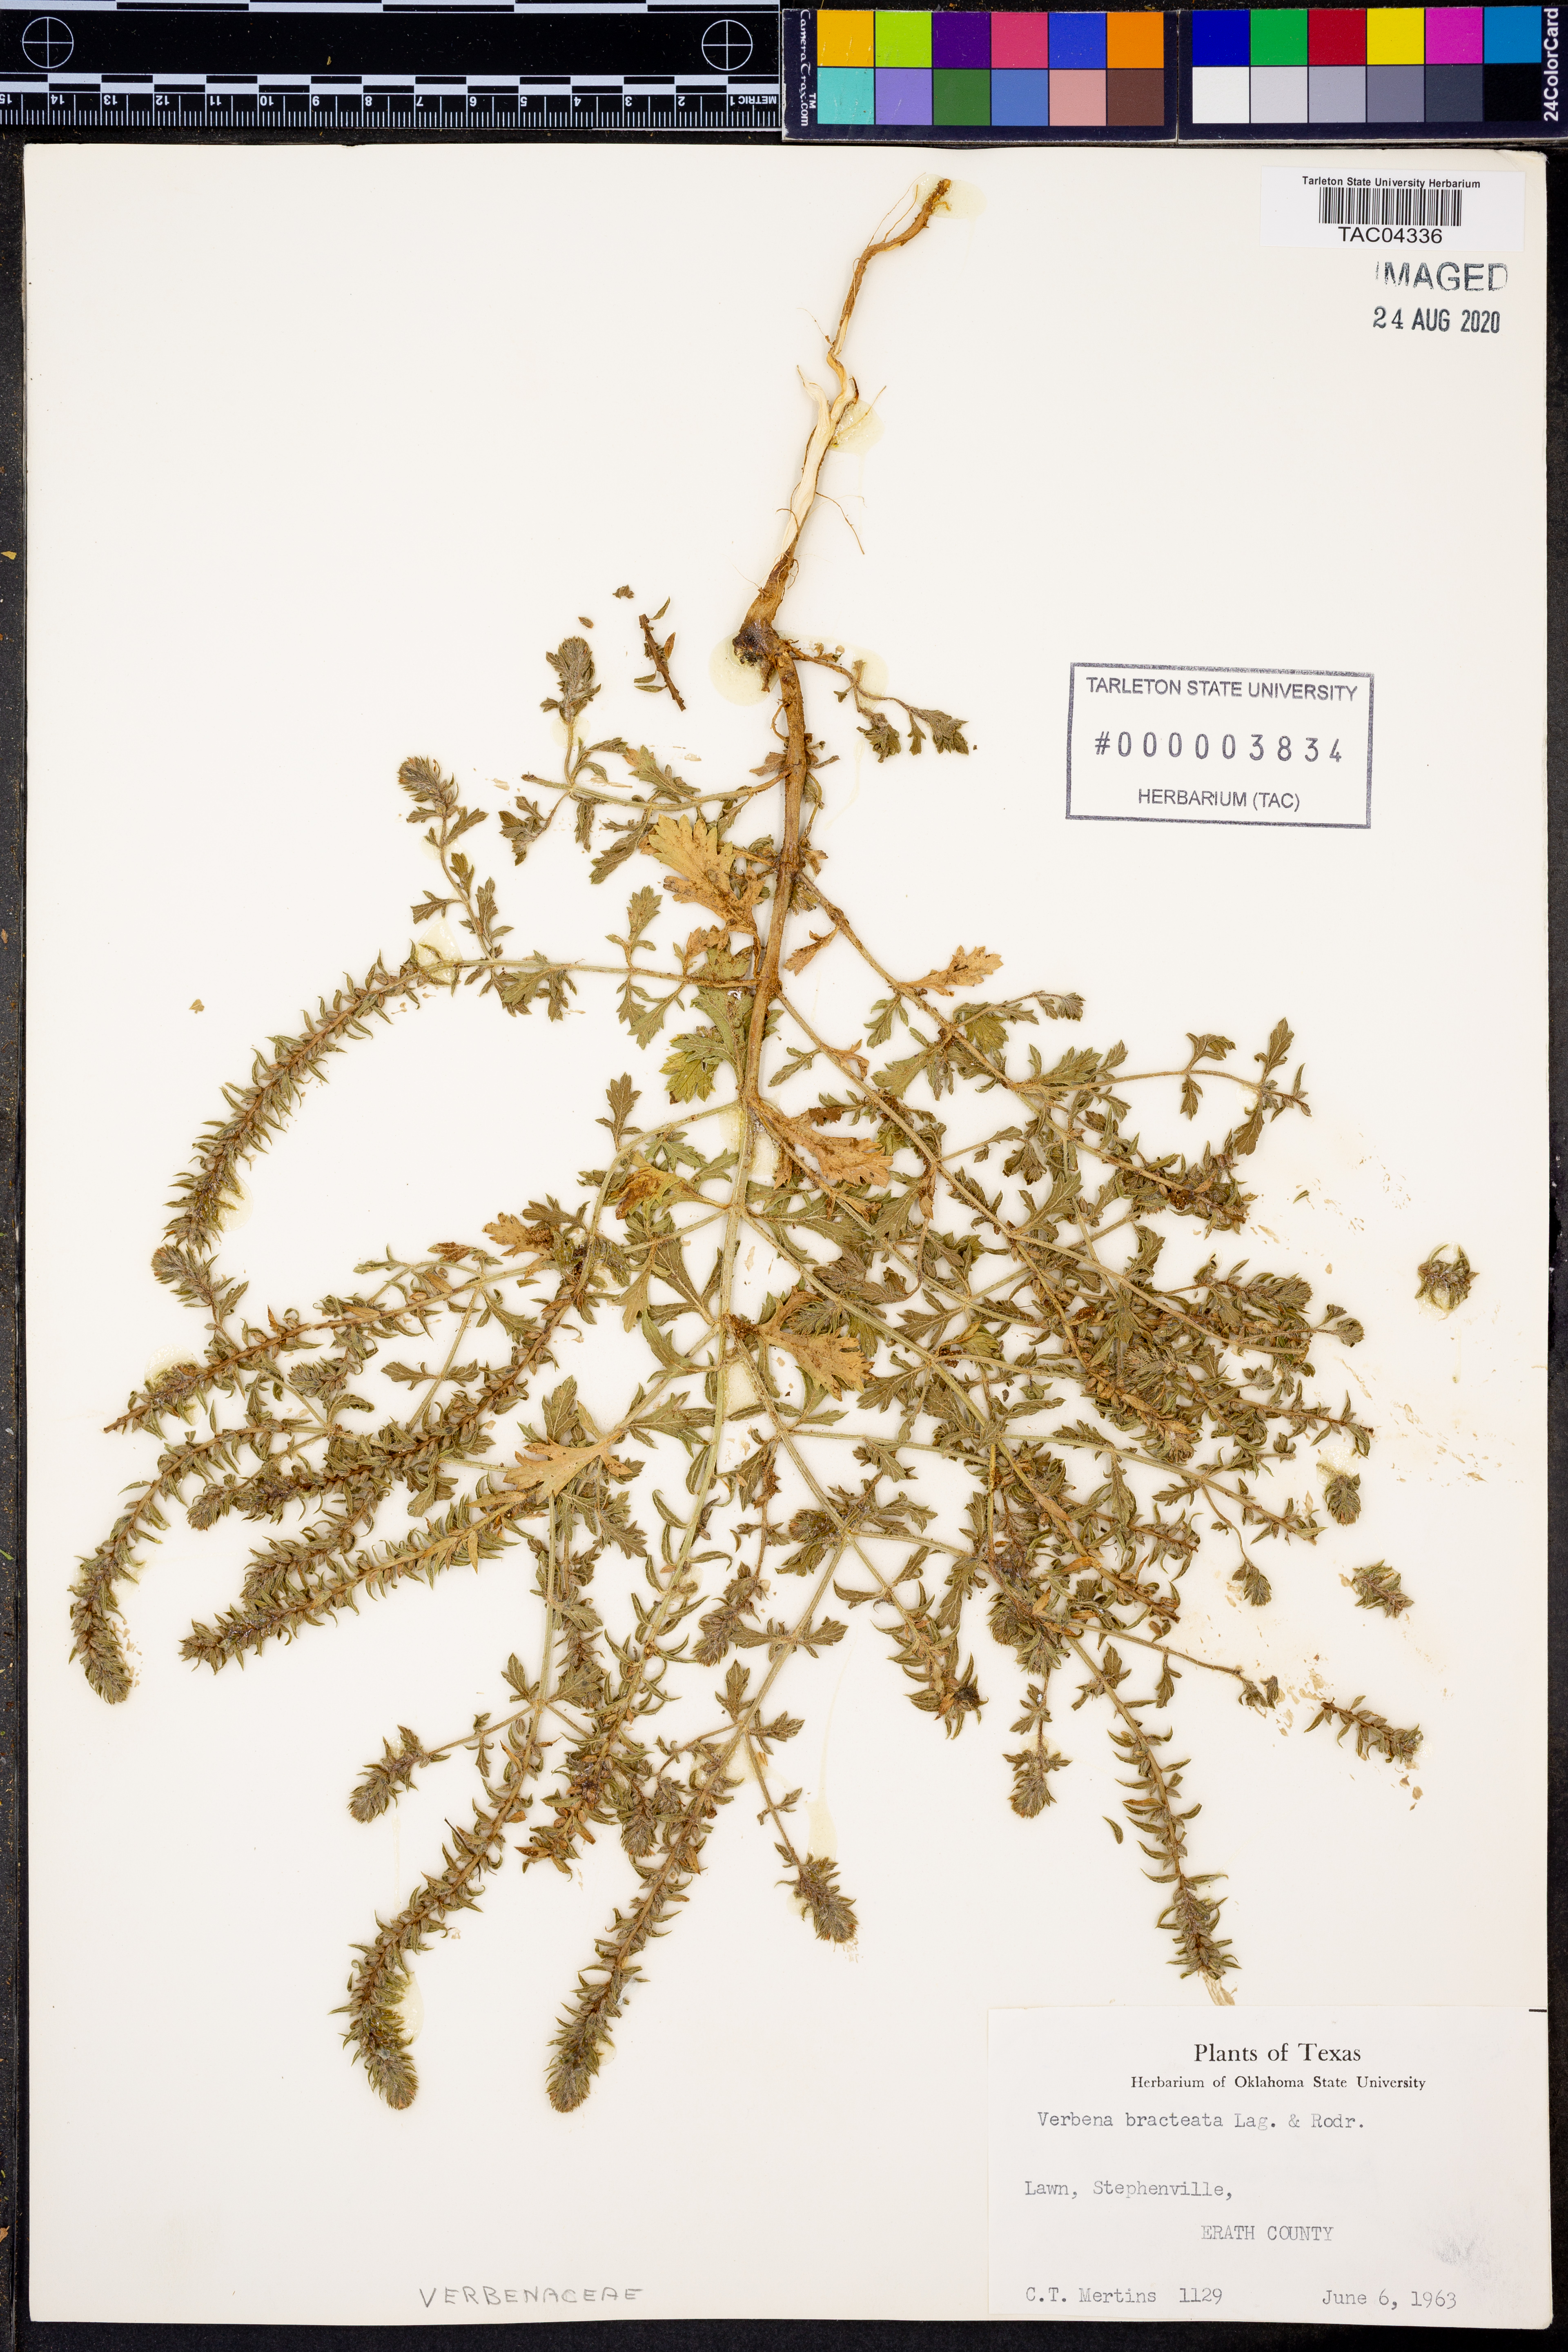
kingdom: Plantae
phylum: Tracheophyta
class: Magnoliopsida
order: Lamiales
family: Verbenaceae
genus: Verbena
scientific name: Verbena bracteata
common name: Bracted vervain
